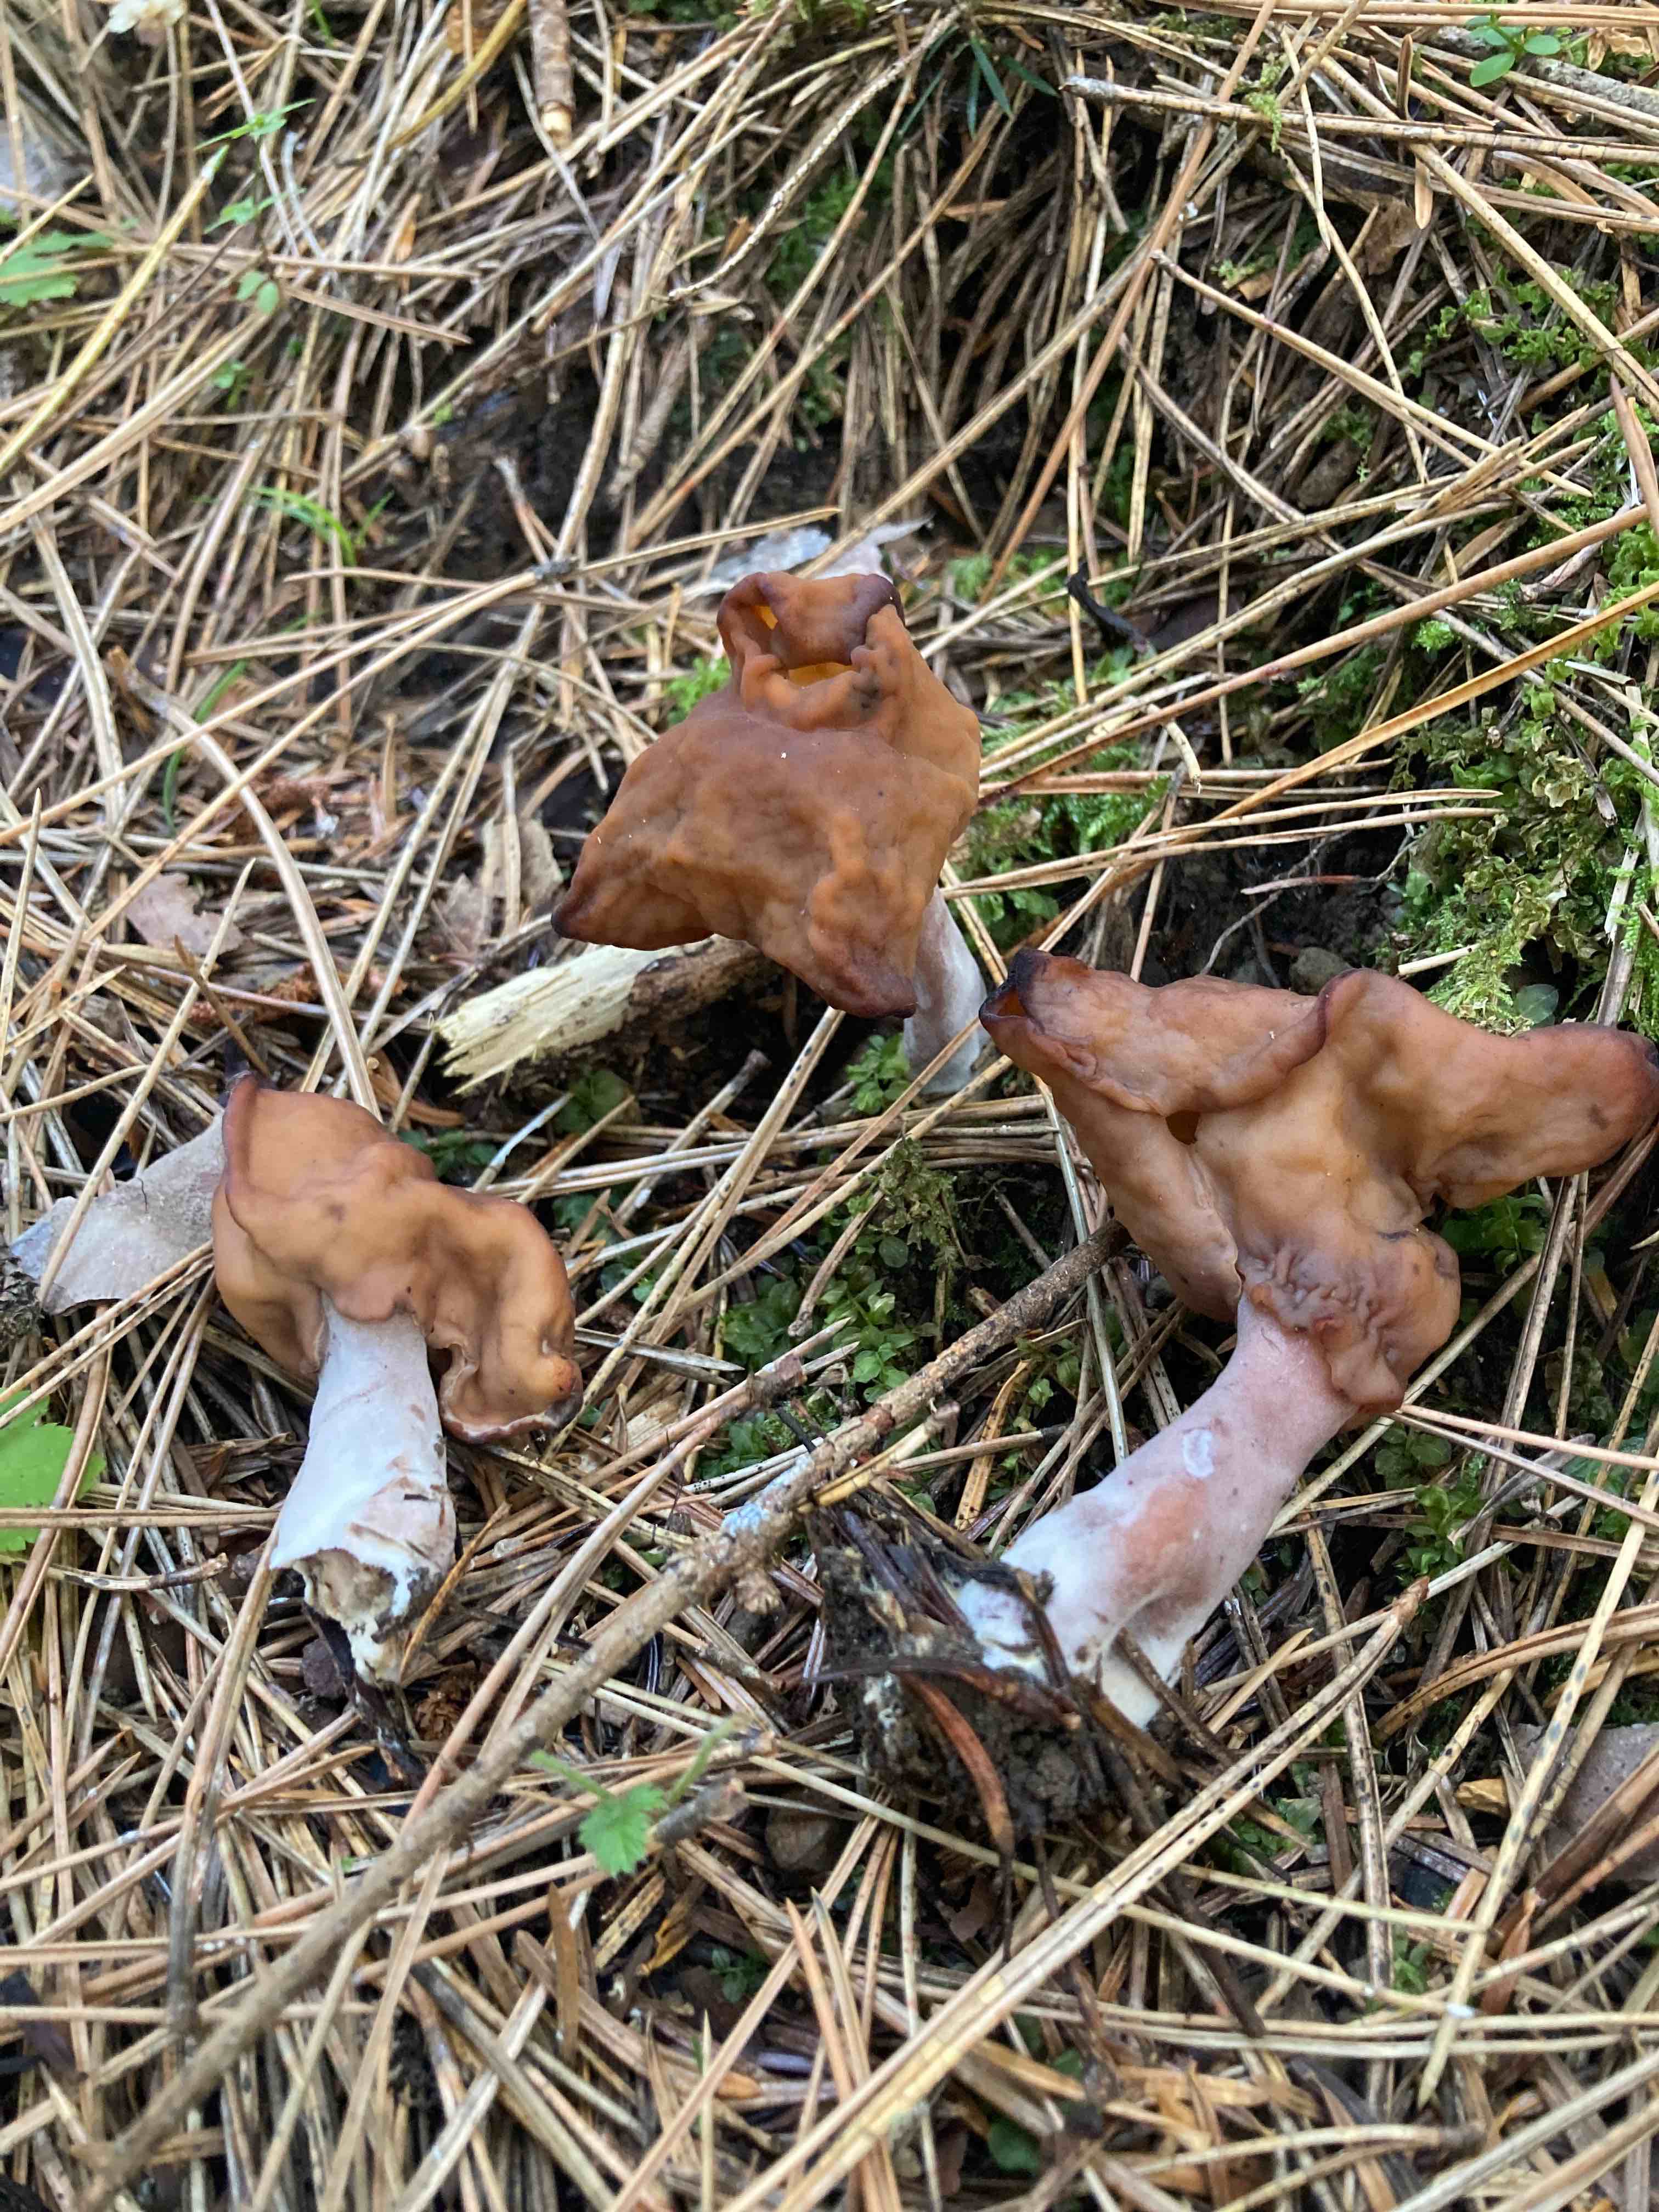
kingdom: Fungi
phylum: Ascomycota
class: Pezizomycetes
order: Pezizales
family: Discinaceae
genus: Gyromitra
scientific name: Gyromitra infula
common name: bispehue-stenmorkel
